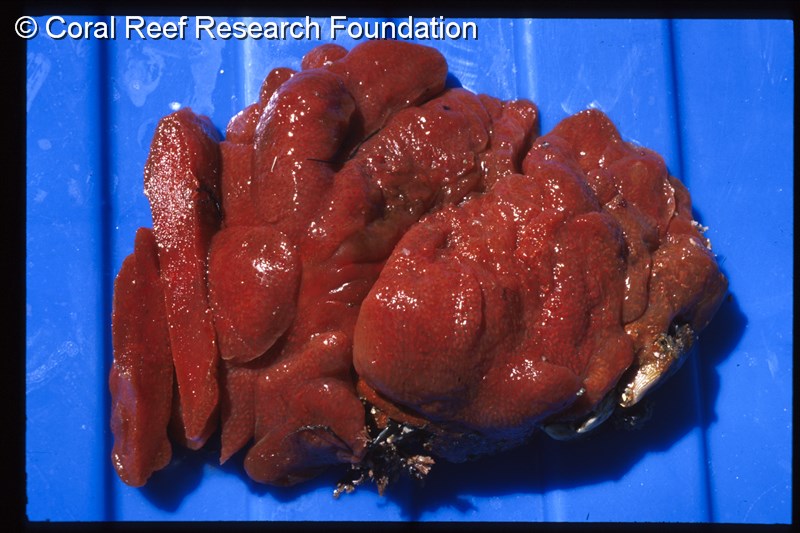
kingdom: Animalia
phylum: Chordata
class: Ascidiacea
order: Aplousobranchia
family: Pseudodistomidae
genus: Pseudodistoma
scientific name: Pseudodistoma
